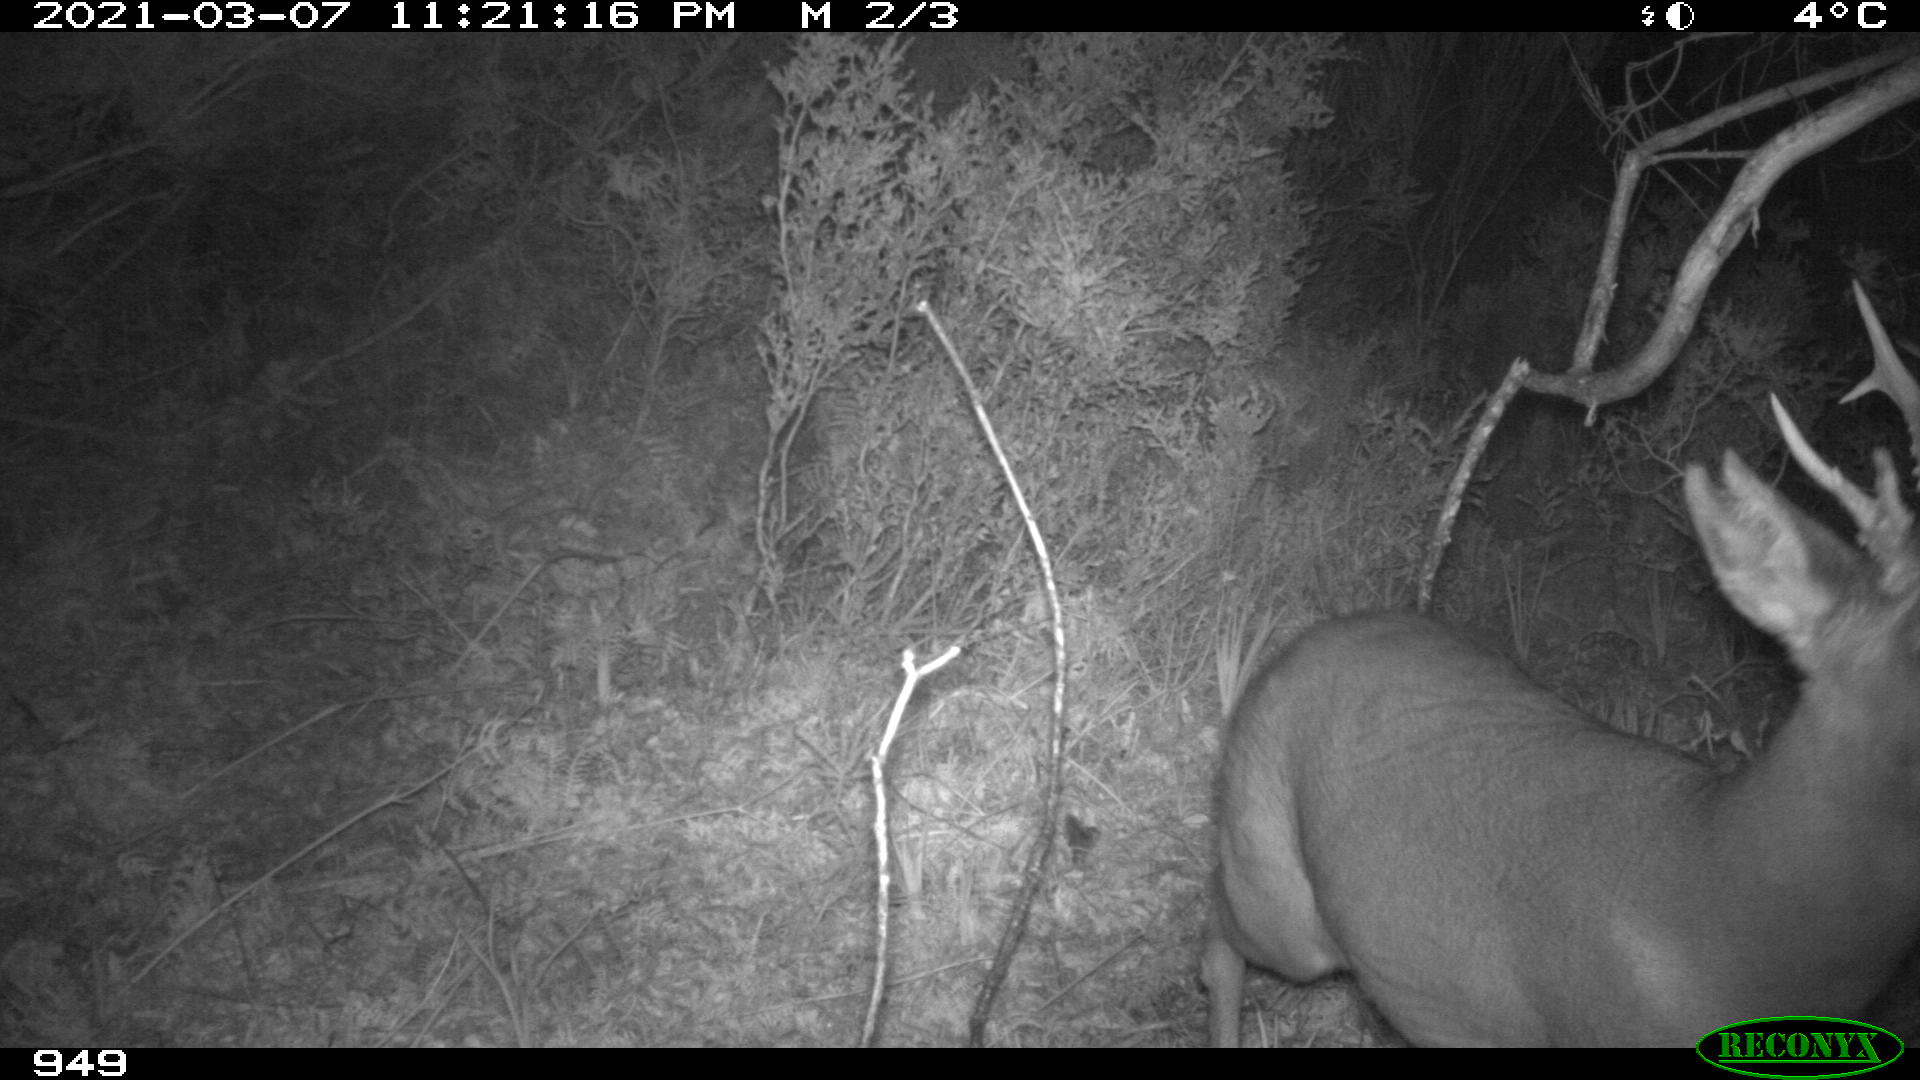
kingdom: Animalia
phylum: Chordata
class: Mammalia
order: Artiodactyla
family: Cervidae
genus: Capreolus
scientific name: Capreolus capreolus
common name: Western roe deer
